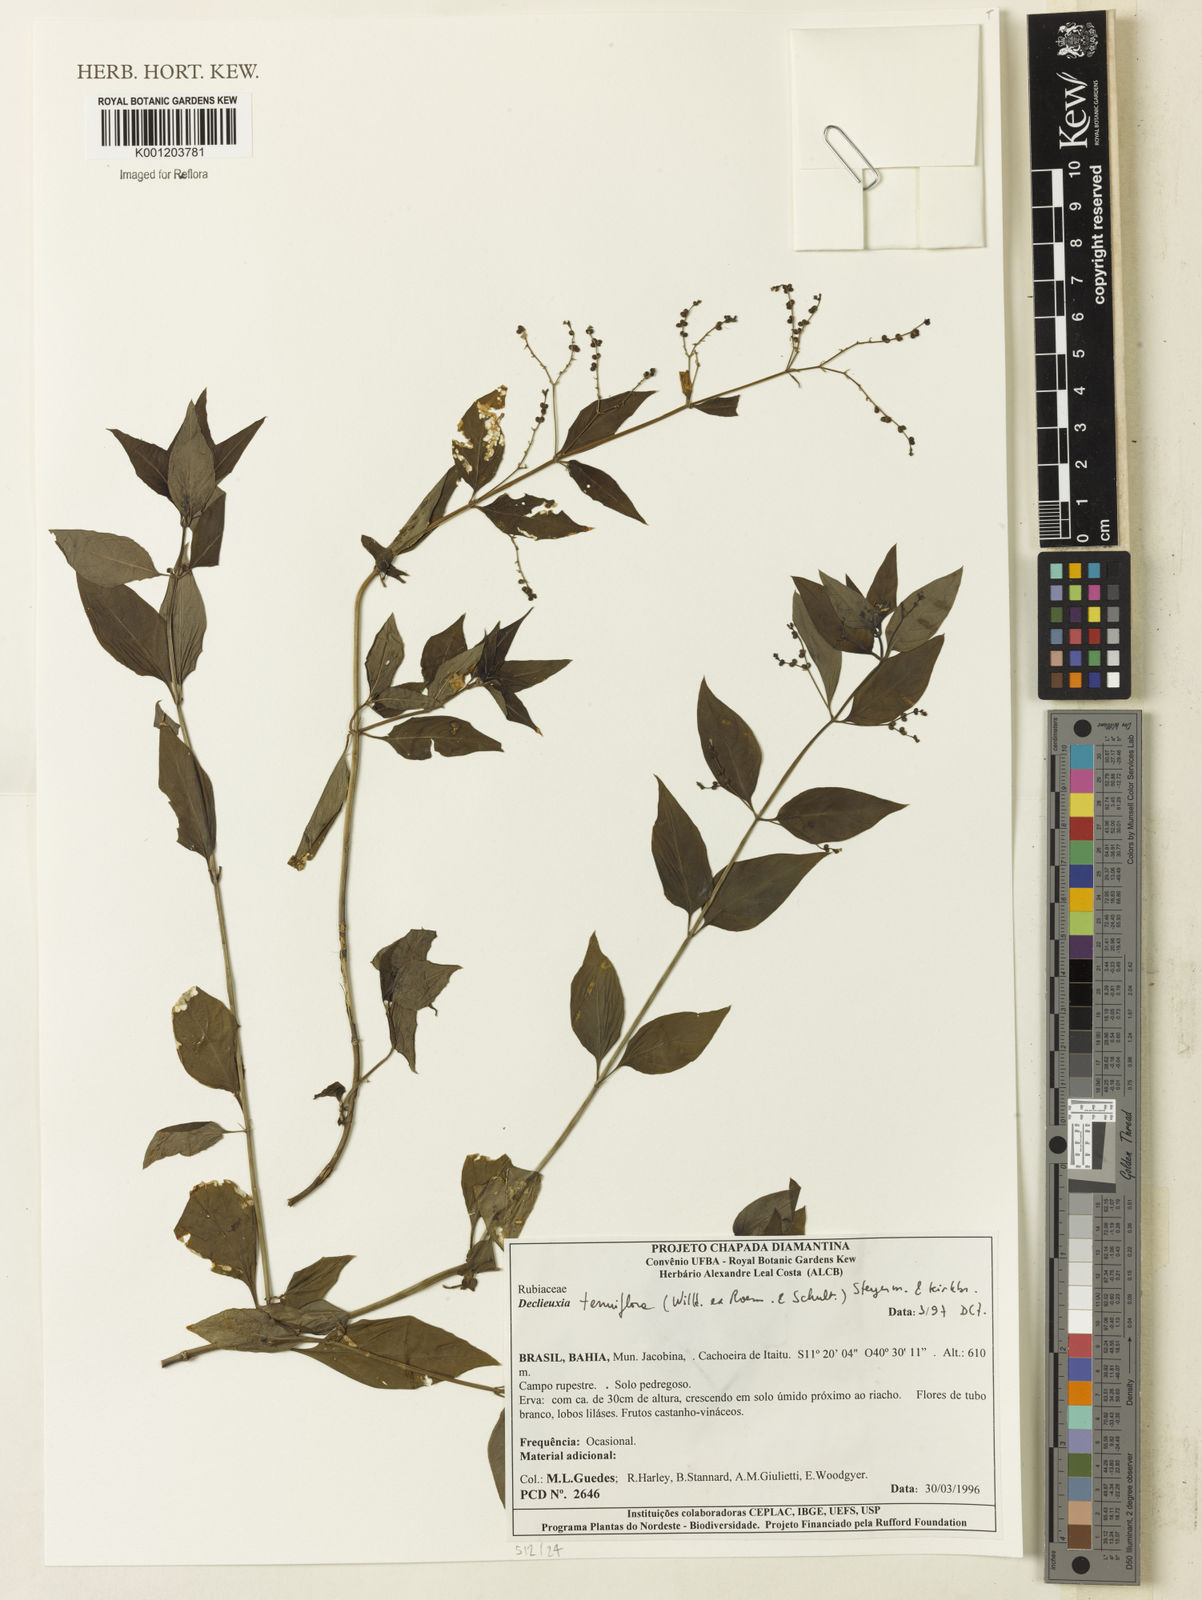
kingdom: Plantae
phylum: Tracheophyta
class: Magnoliopsida
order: Gentianales
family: Rubiaceae
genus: Declieuxia
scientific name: Declieuxia tenuiflora
